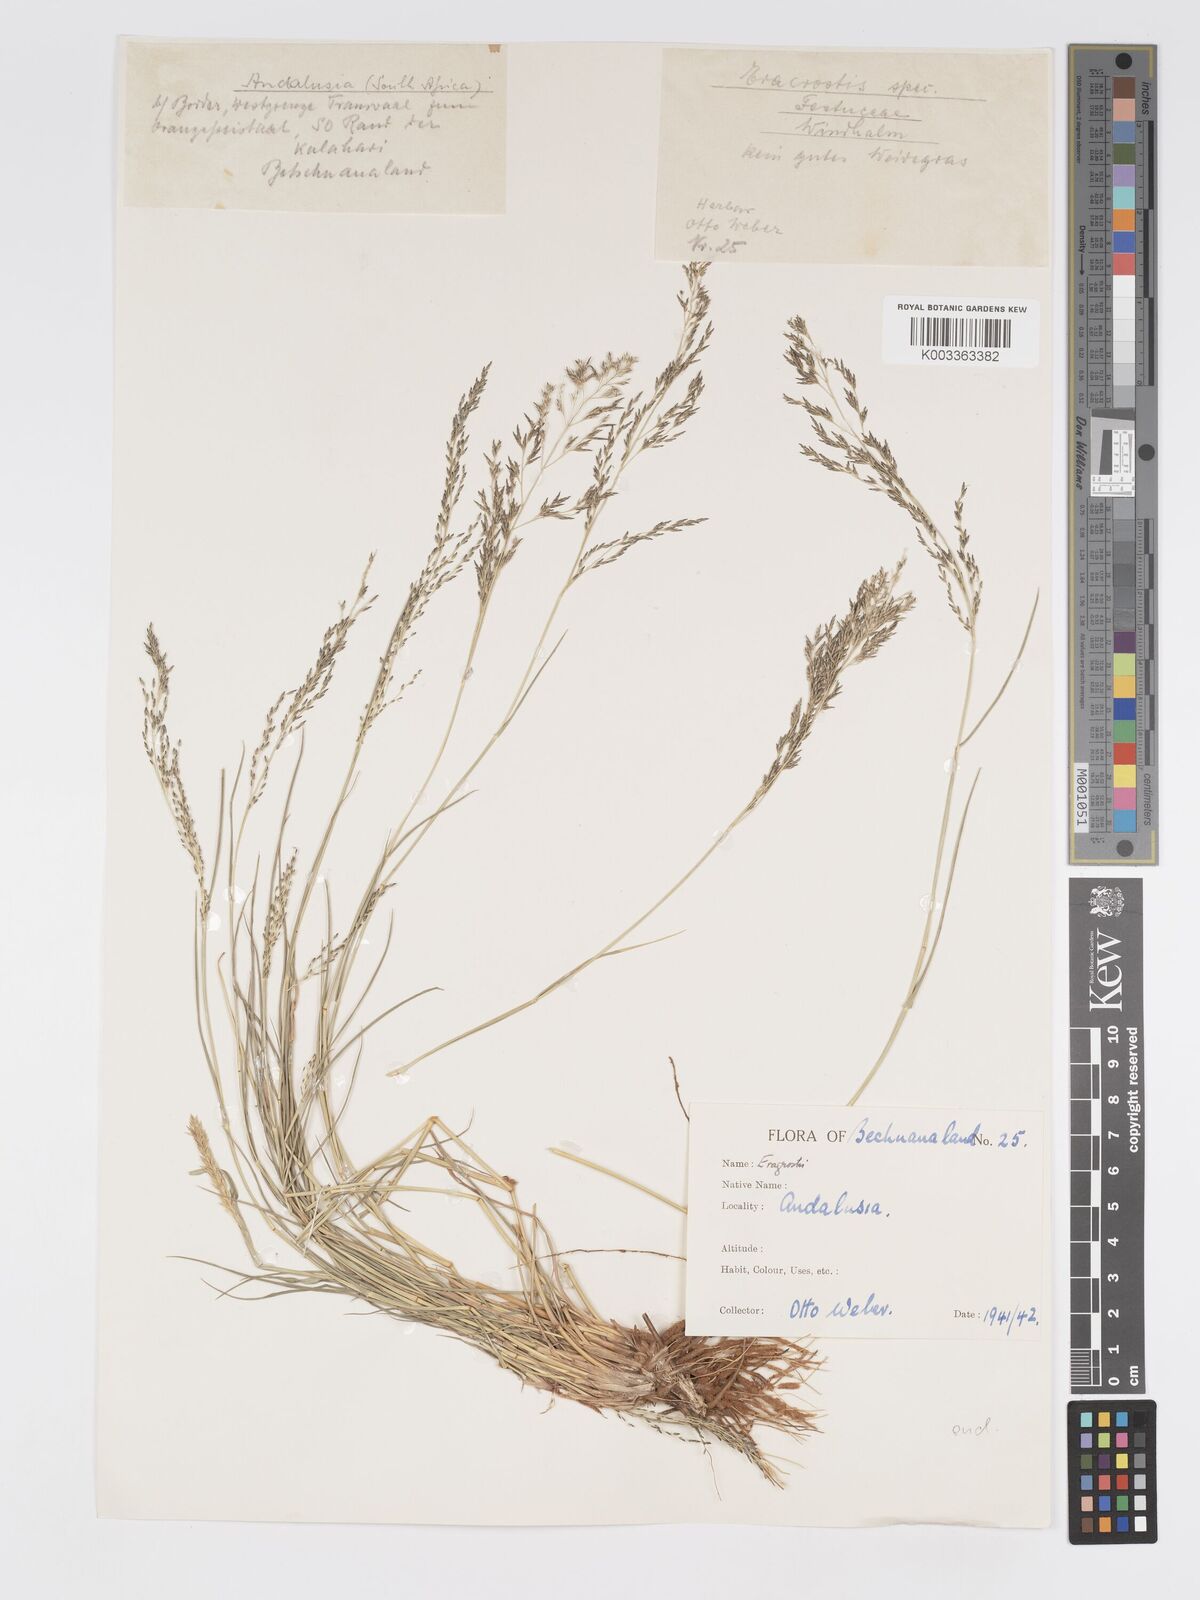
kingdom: Plantae
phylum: Tracheophyta
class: Liliopsida
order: Poales
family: Poaceae
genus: Eragrostis
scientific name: Eragrostis lehmanniana
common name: Lehmann lovegrass
